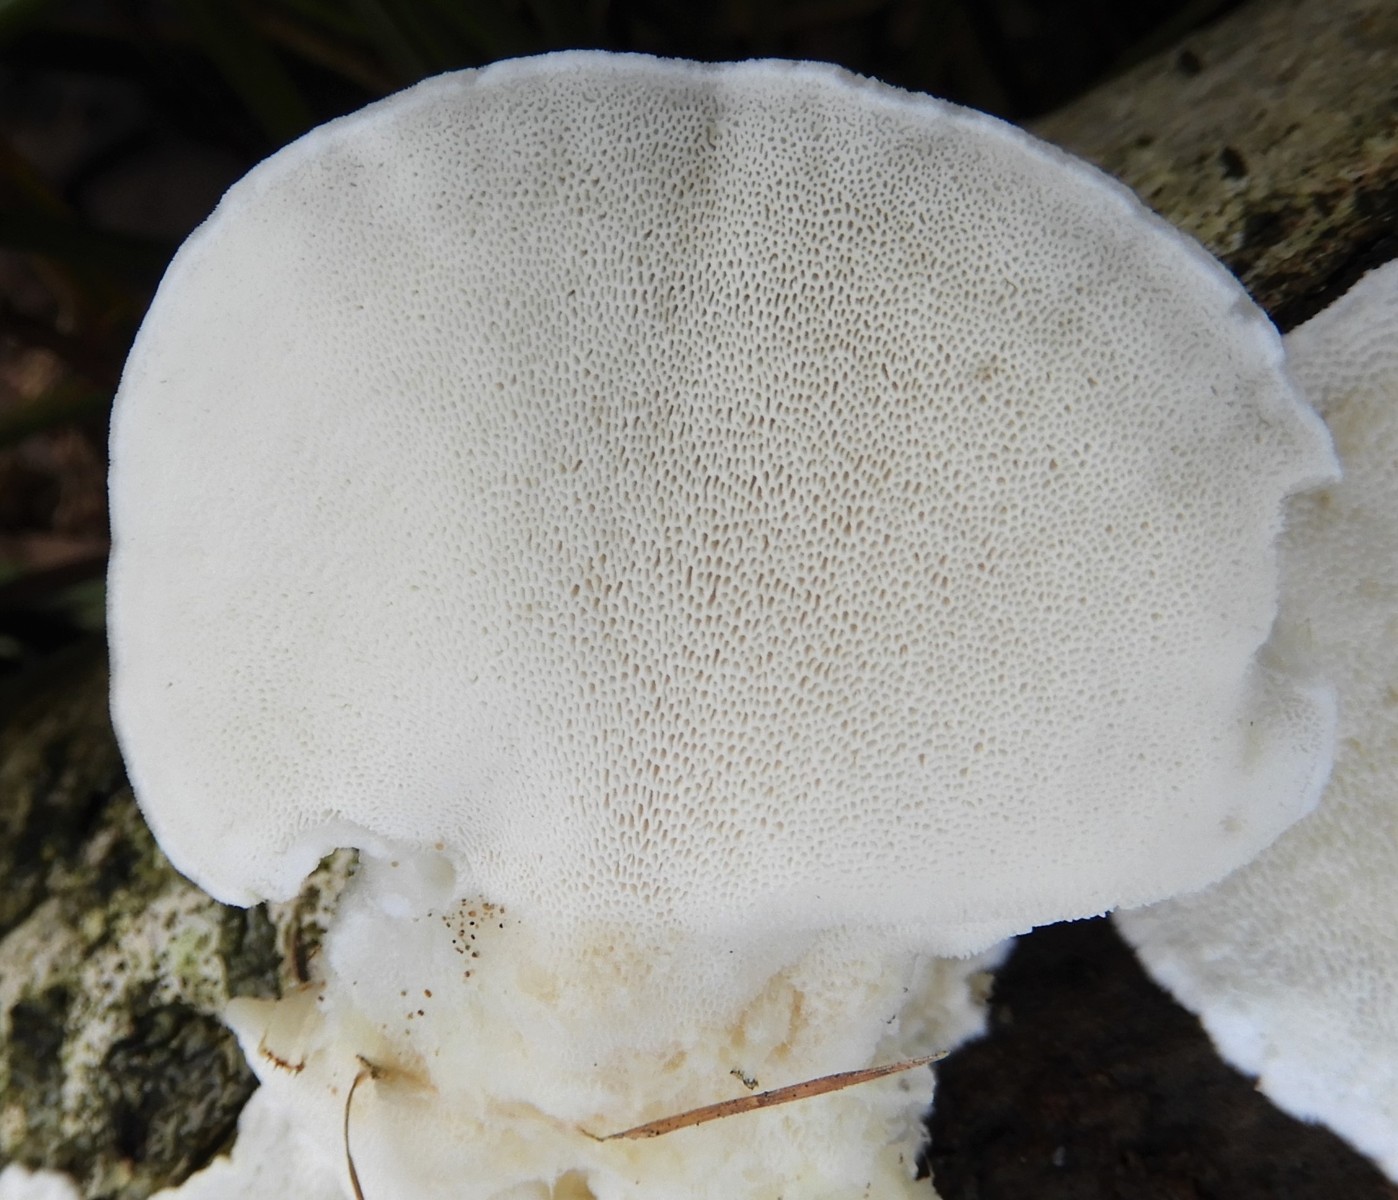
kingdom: Fungi
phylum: Basidiomycota
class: Agaricomycetes
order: Polyporales
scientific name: Polyporales
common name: poresvampordenen
